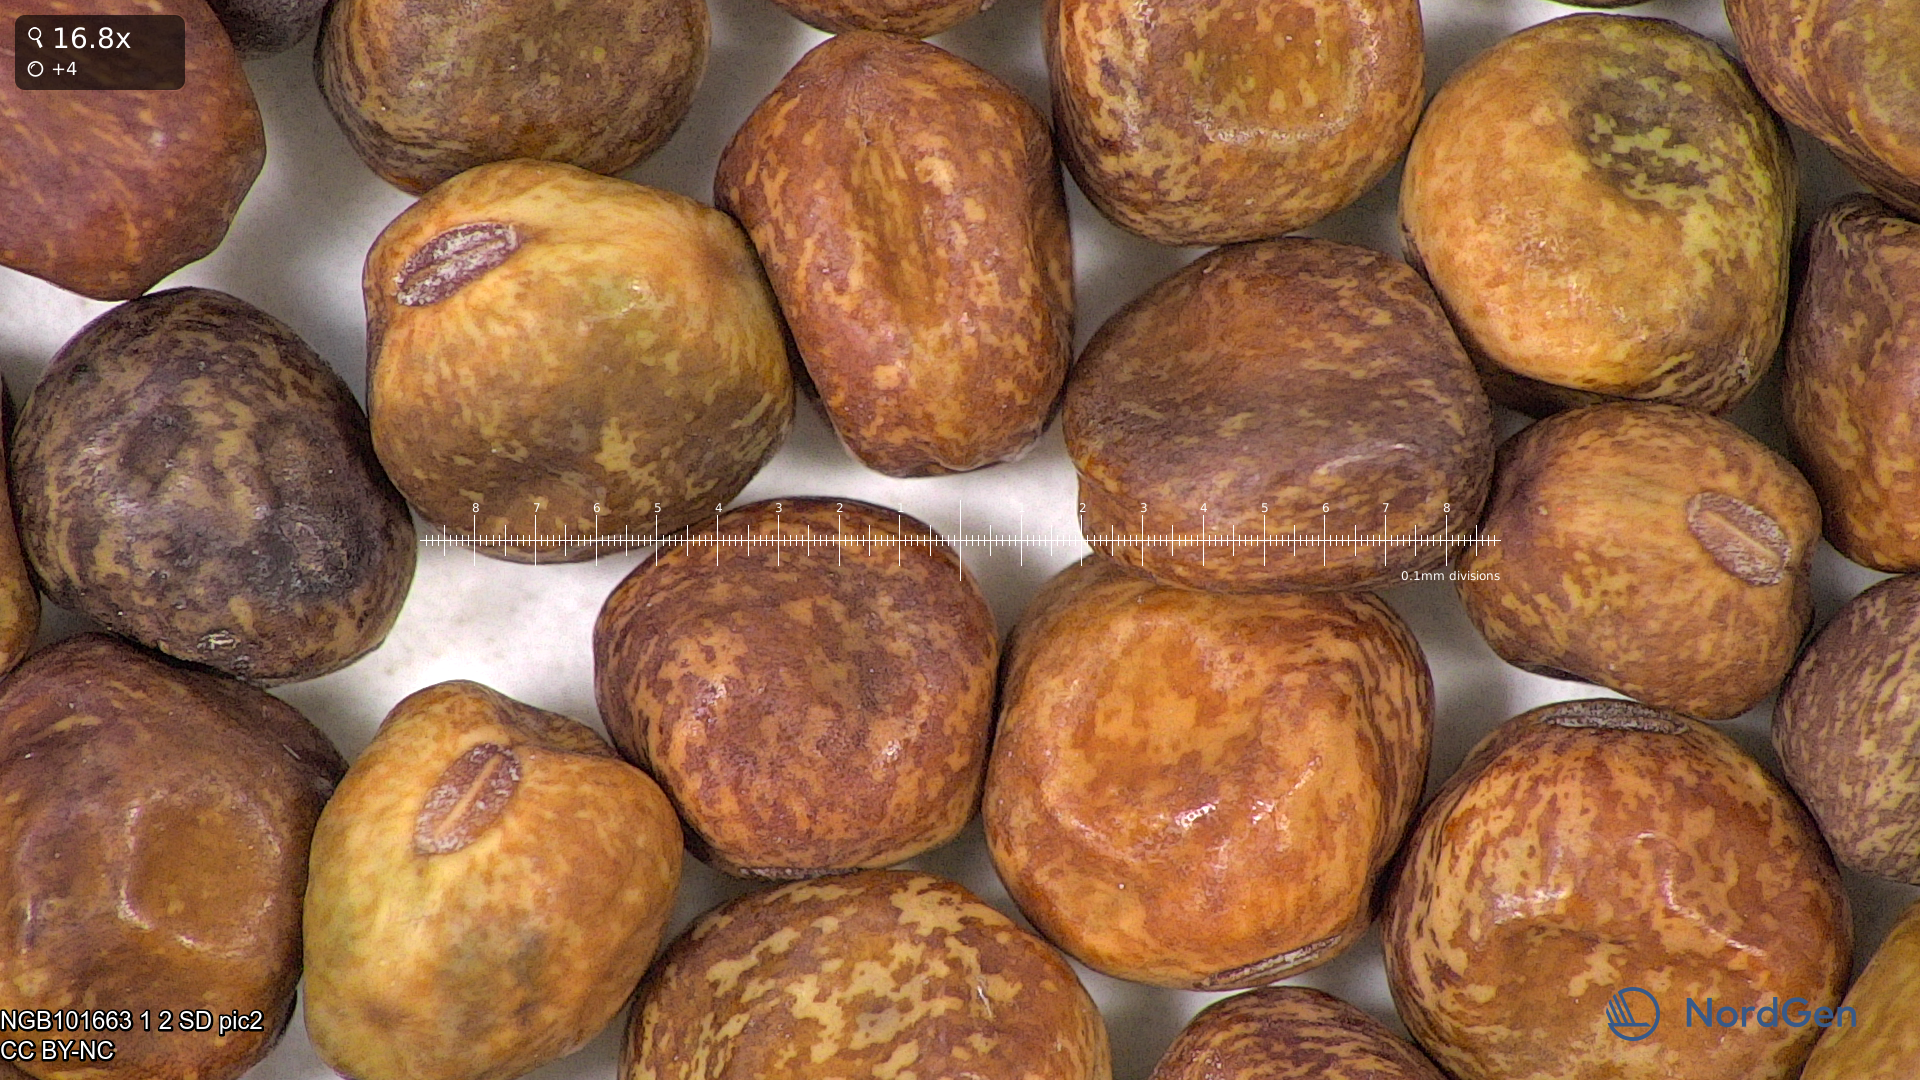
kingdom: Plantae
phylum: Tracheophyta
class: Magnoliopsida
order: Fabales
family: Fabaceae
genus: Lathyrus
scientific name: Lathyrus oleraceus
